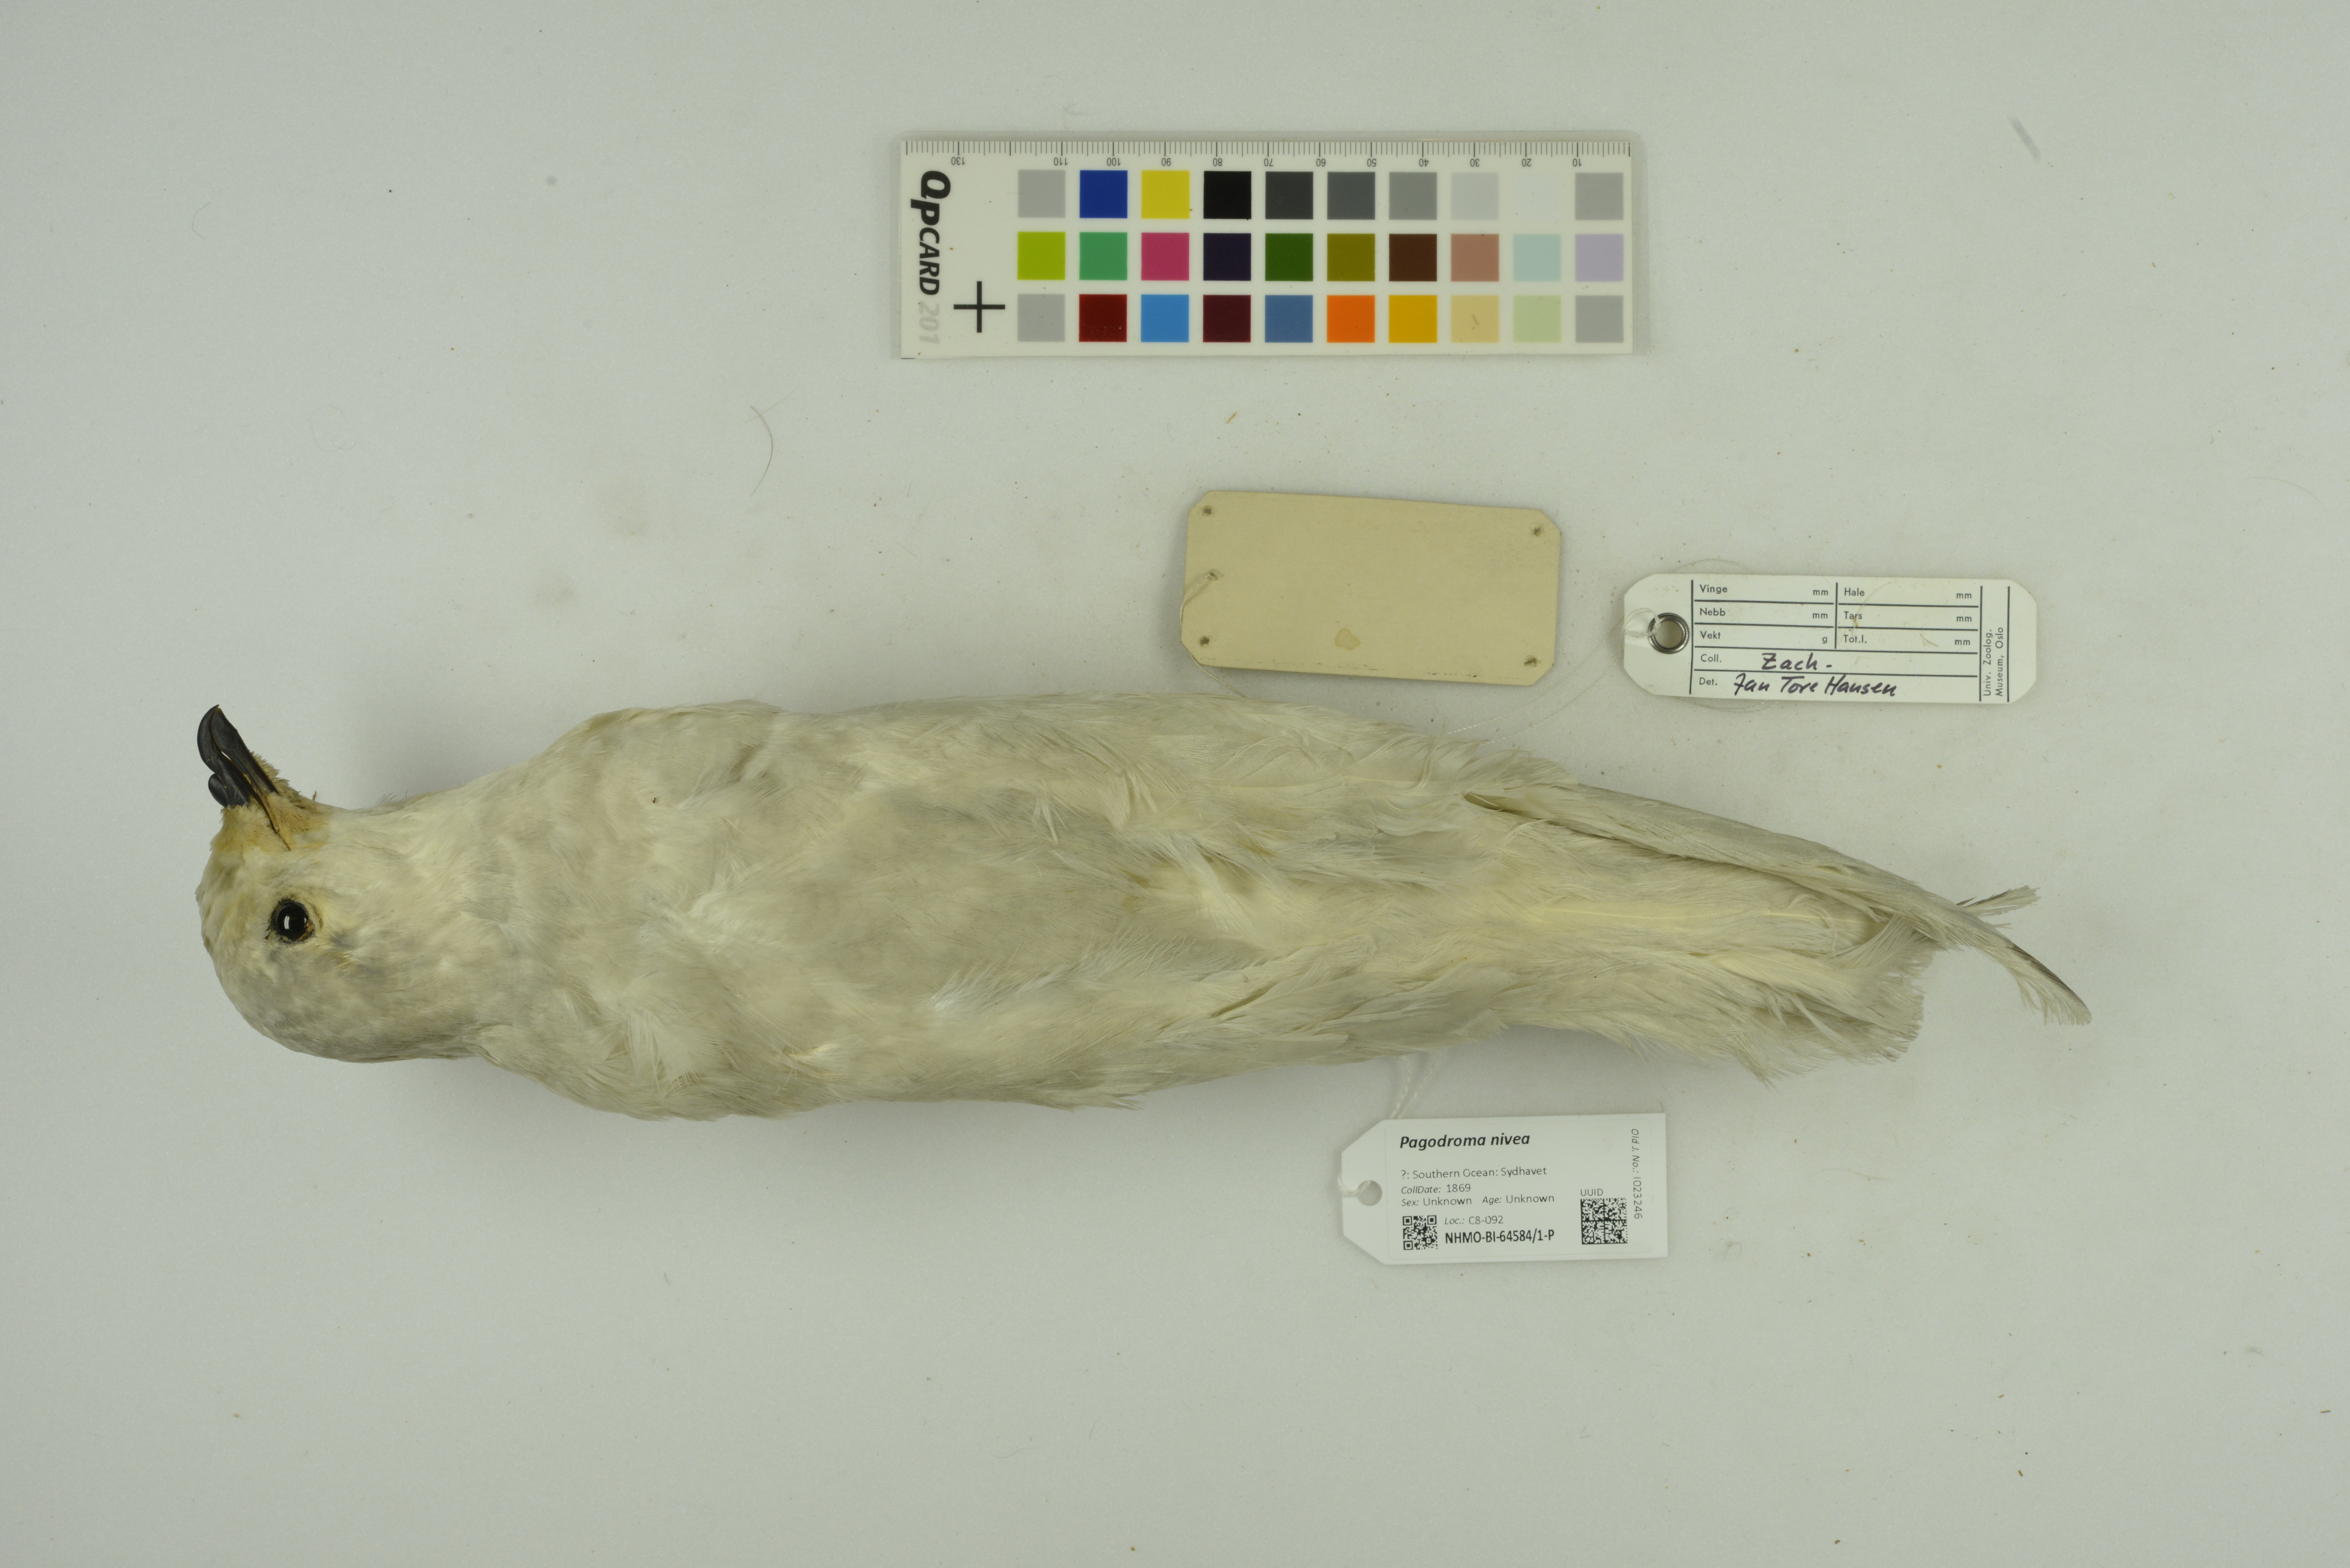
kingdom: Animalia
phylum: Chordata
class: Aves
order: Procellariiformes
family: Procellariidae
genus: Pagodroma
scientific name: Pagodroma nivea
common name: Snow petrel
